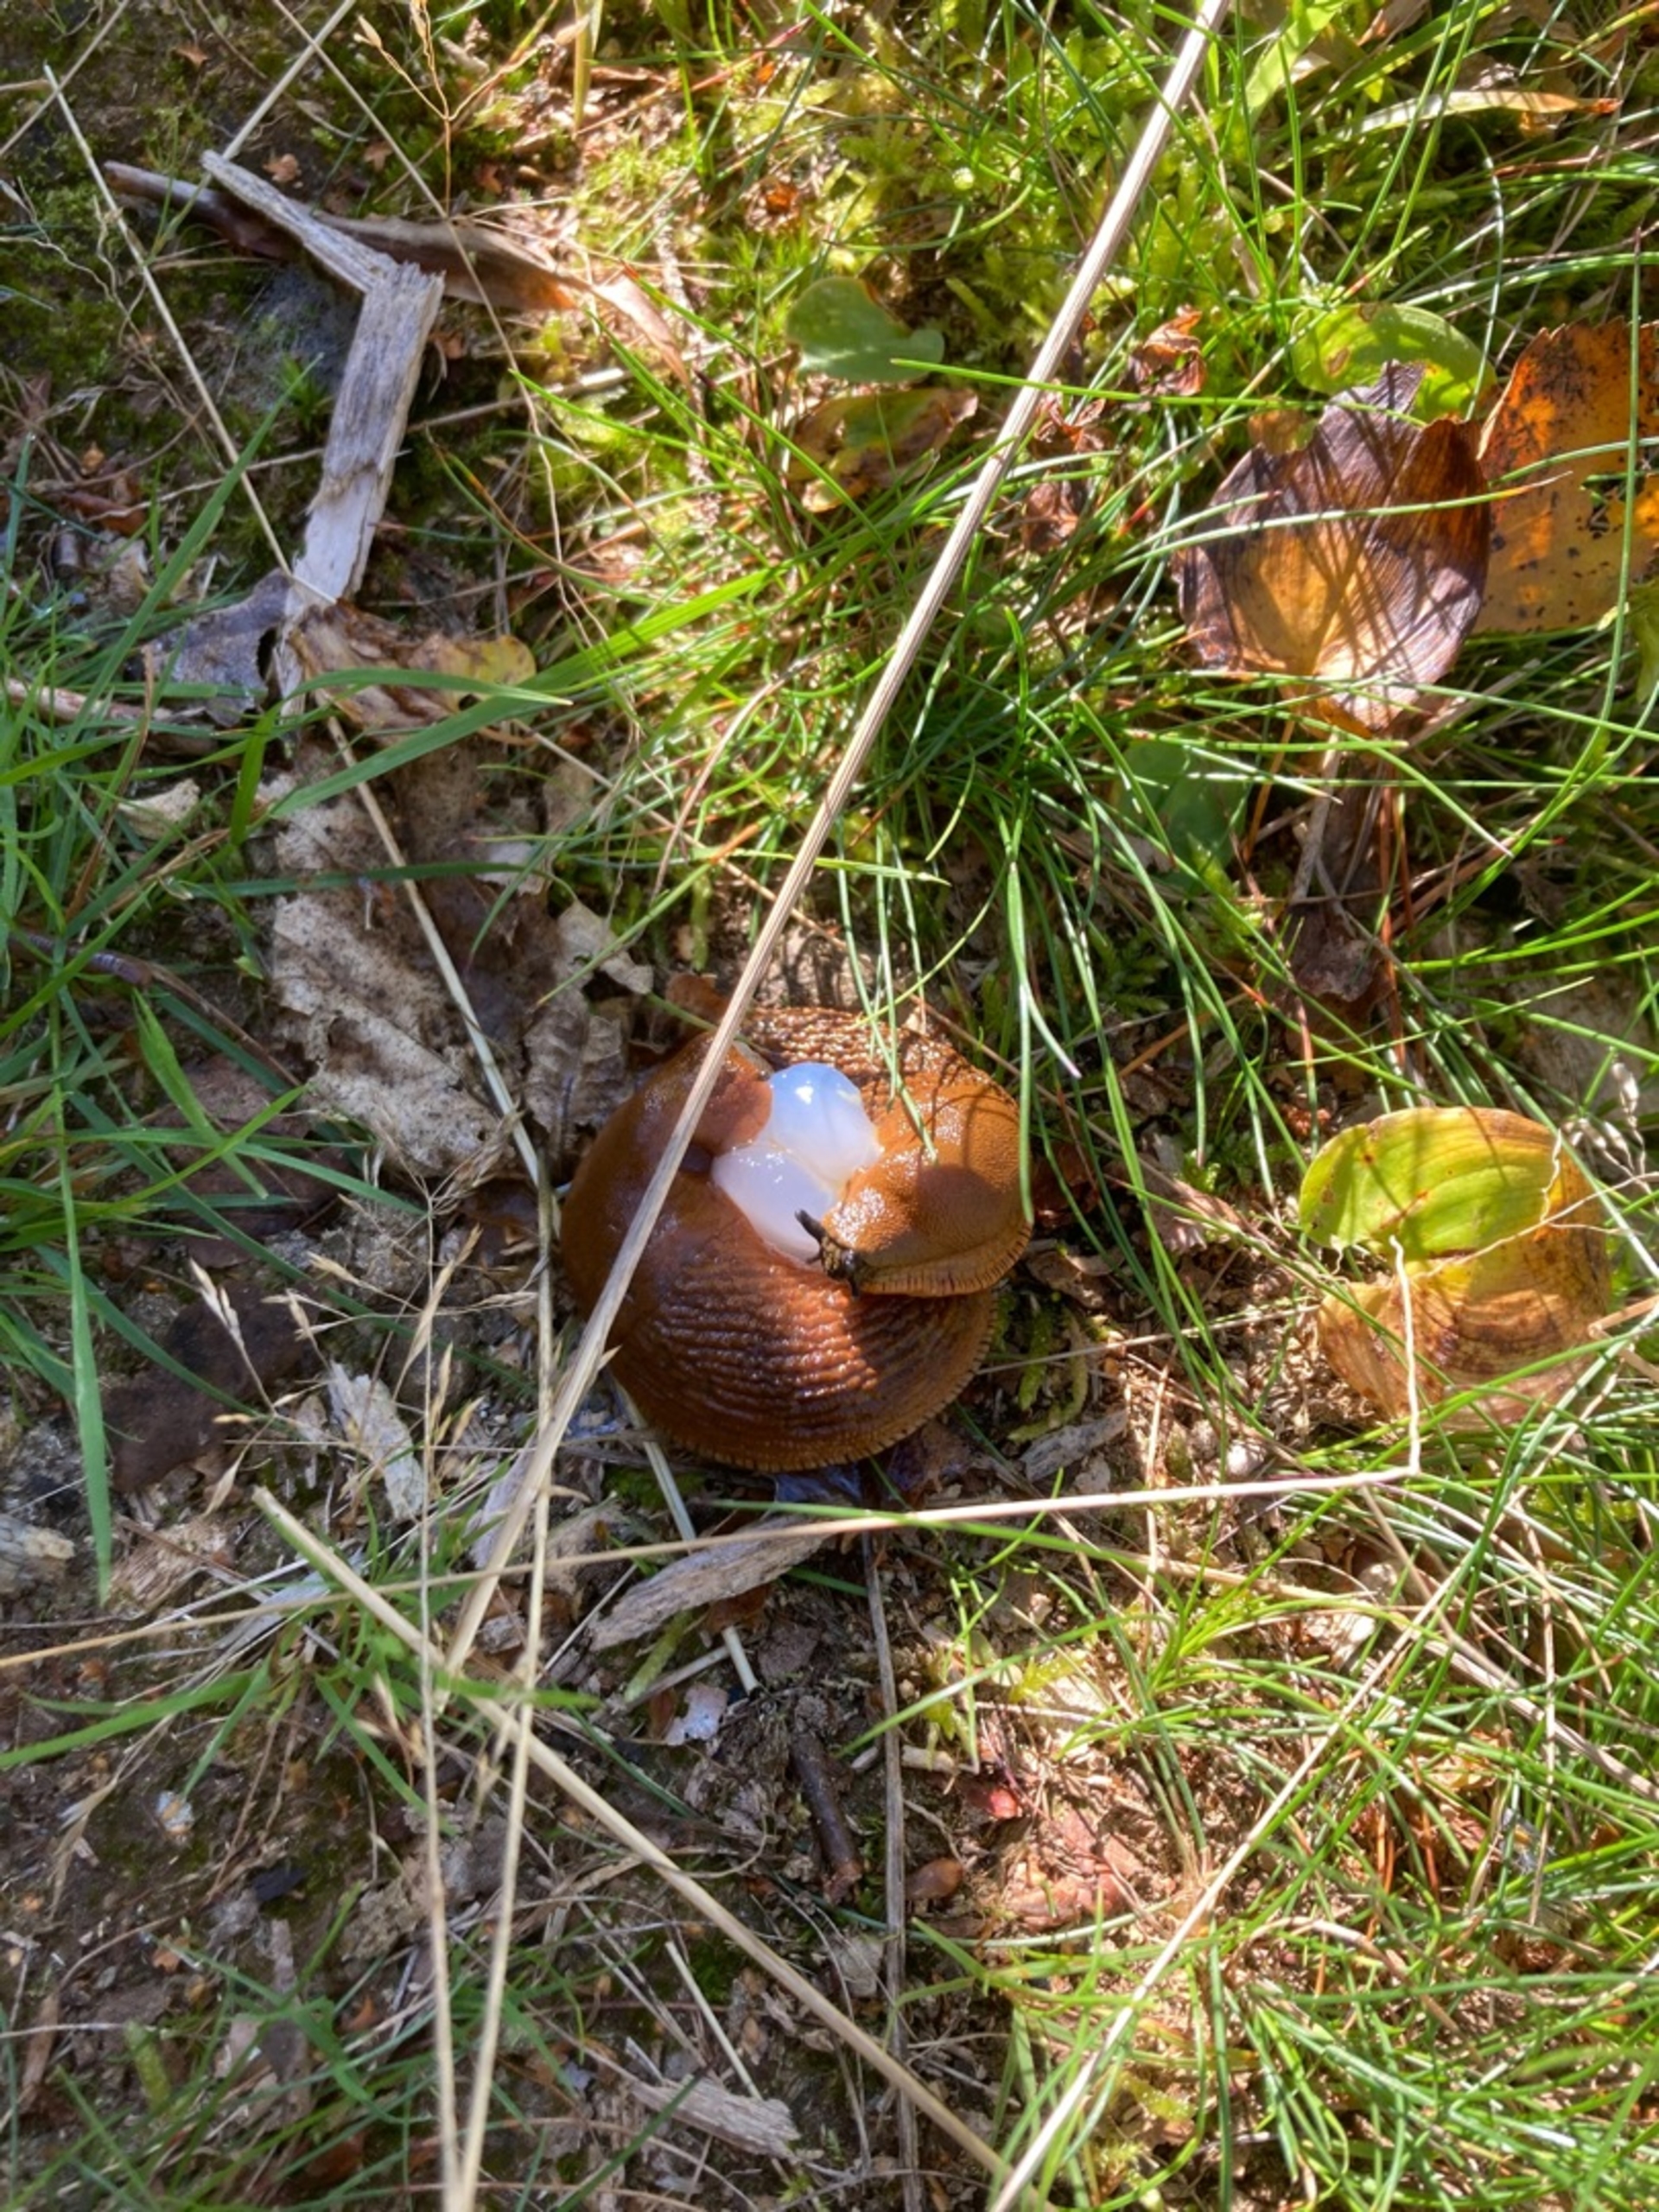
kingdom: Animalia
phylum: Mollusca
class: Gastropoda
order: Stylommatophora
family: Arionidae
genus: Arion
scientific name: Arion vulgaris
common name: Iberisk skovsnegl
